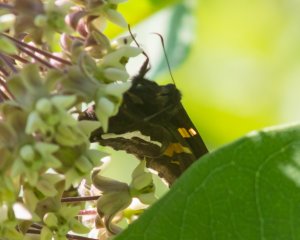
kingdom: Animalia
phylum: Arthropoda
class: Insecta
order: Lepidoptera
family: Hesperiidae
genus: Epargyreus
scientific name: Epargyreus clarus
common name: Silver-spotted Skipper
